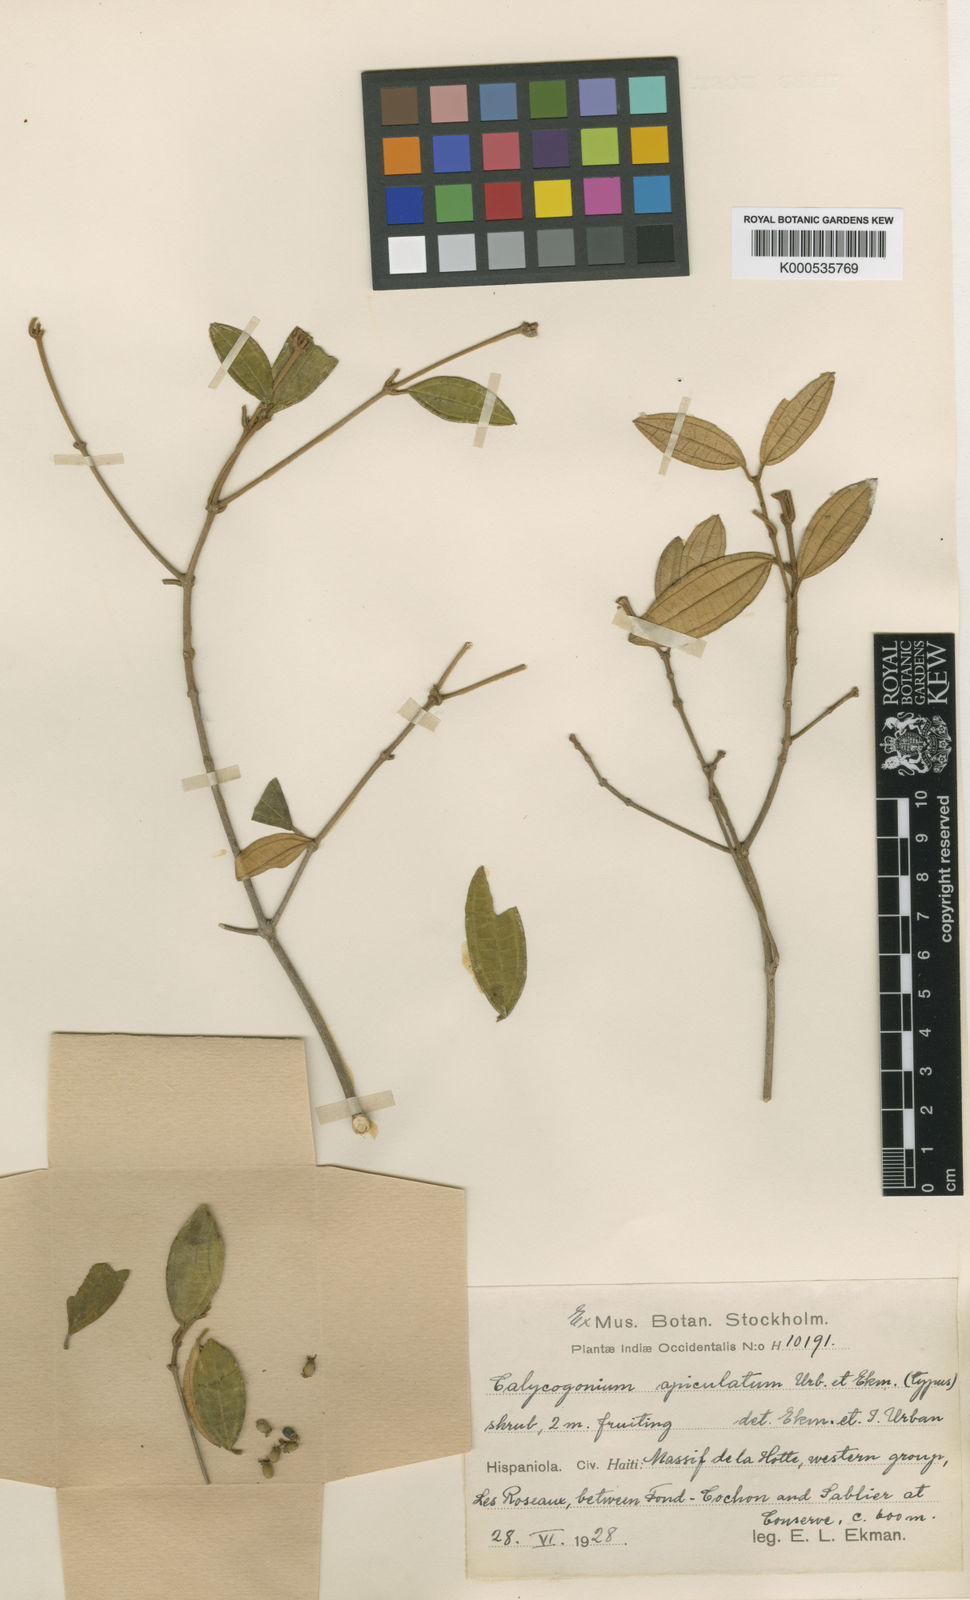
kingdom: Plantae
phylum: Tracheophyta
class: Magnoliopsida
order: Myrtales
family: Melastomataceae
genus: Miconia
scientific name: Miconia rufistellata
